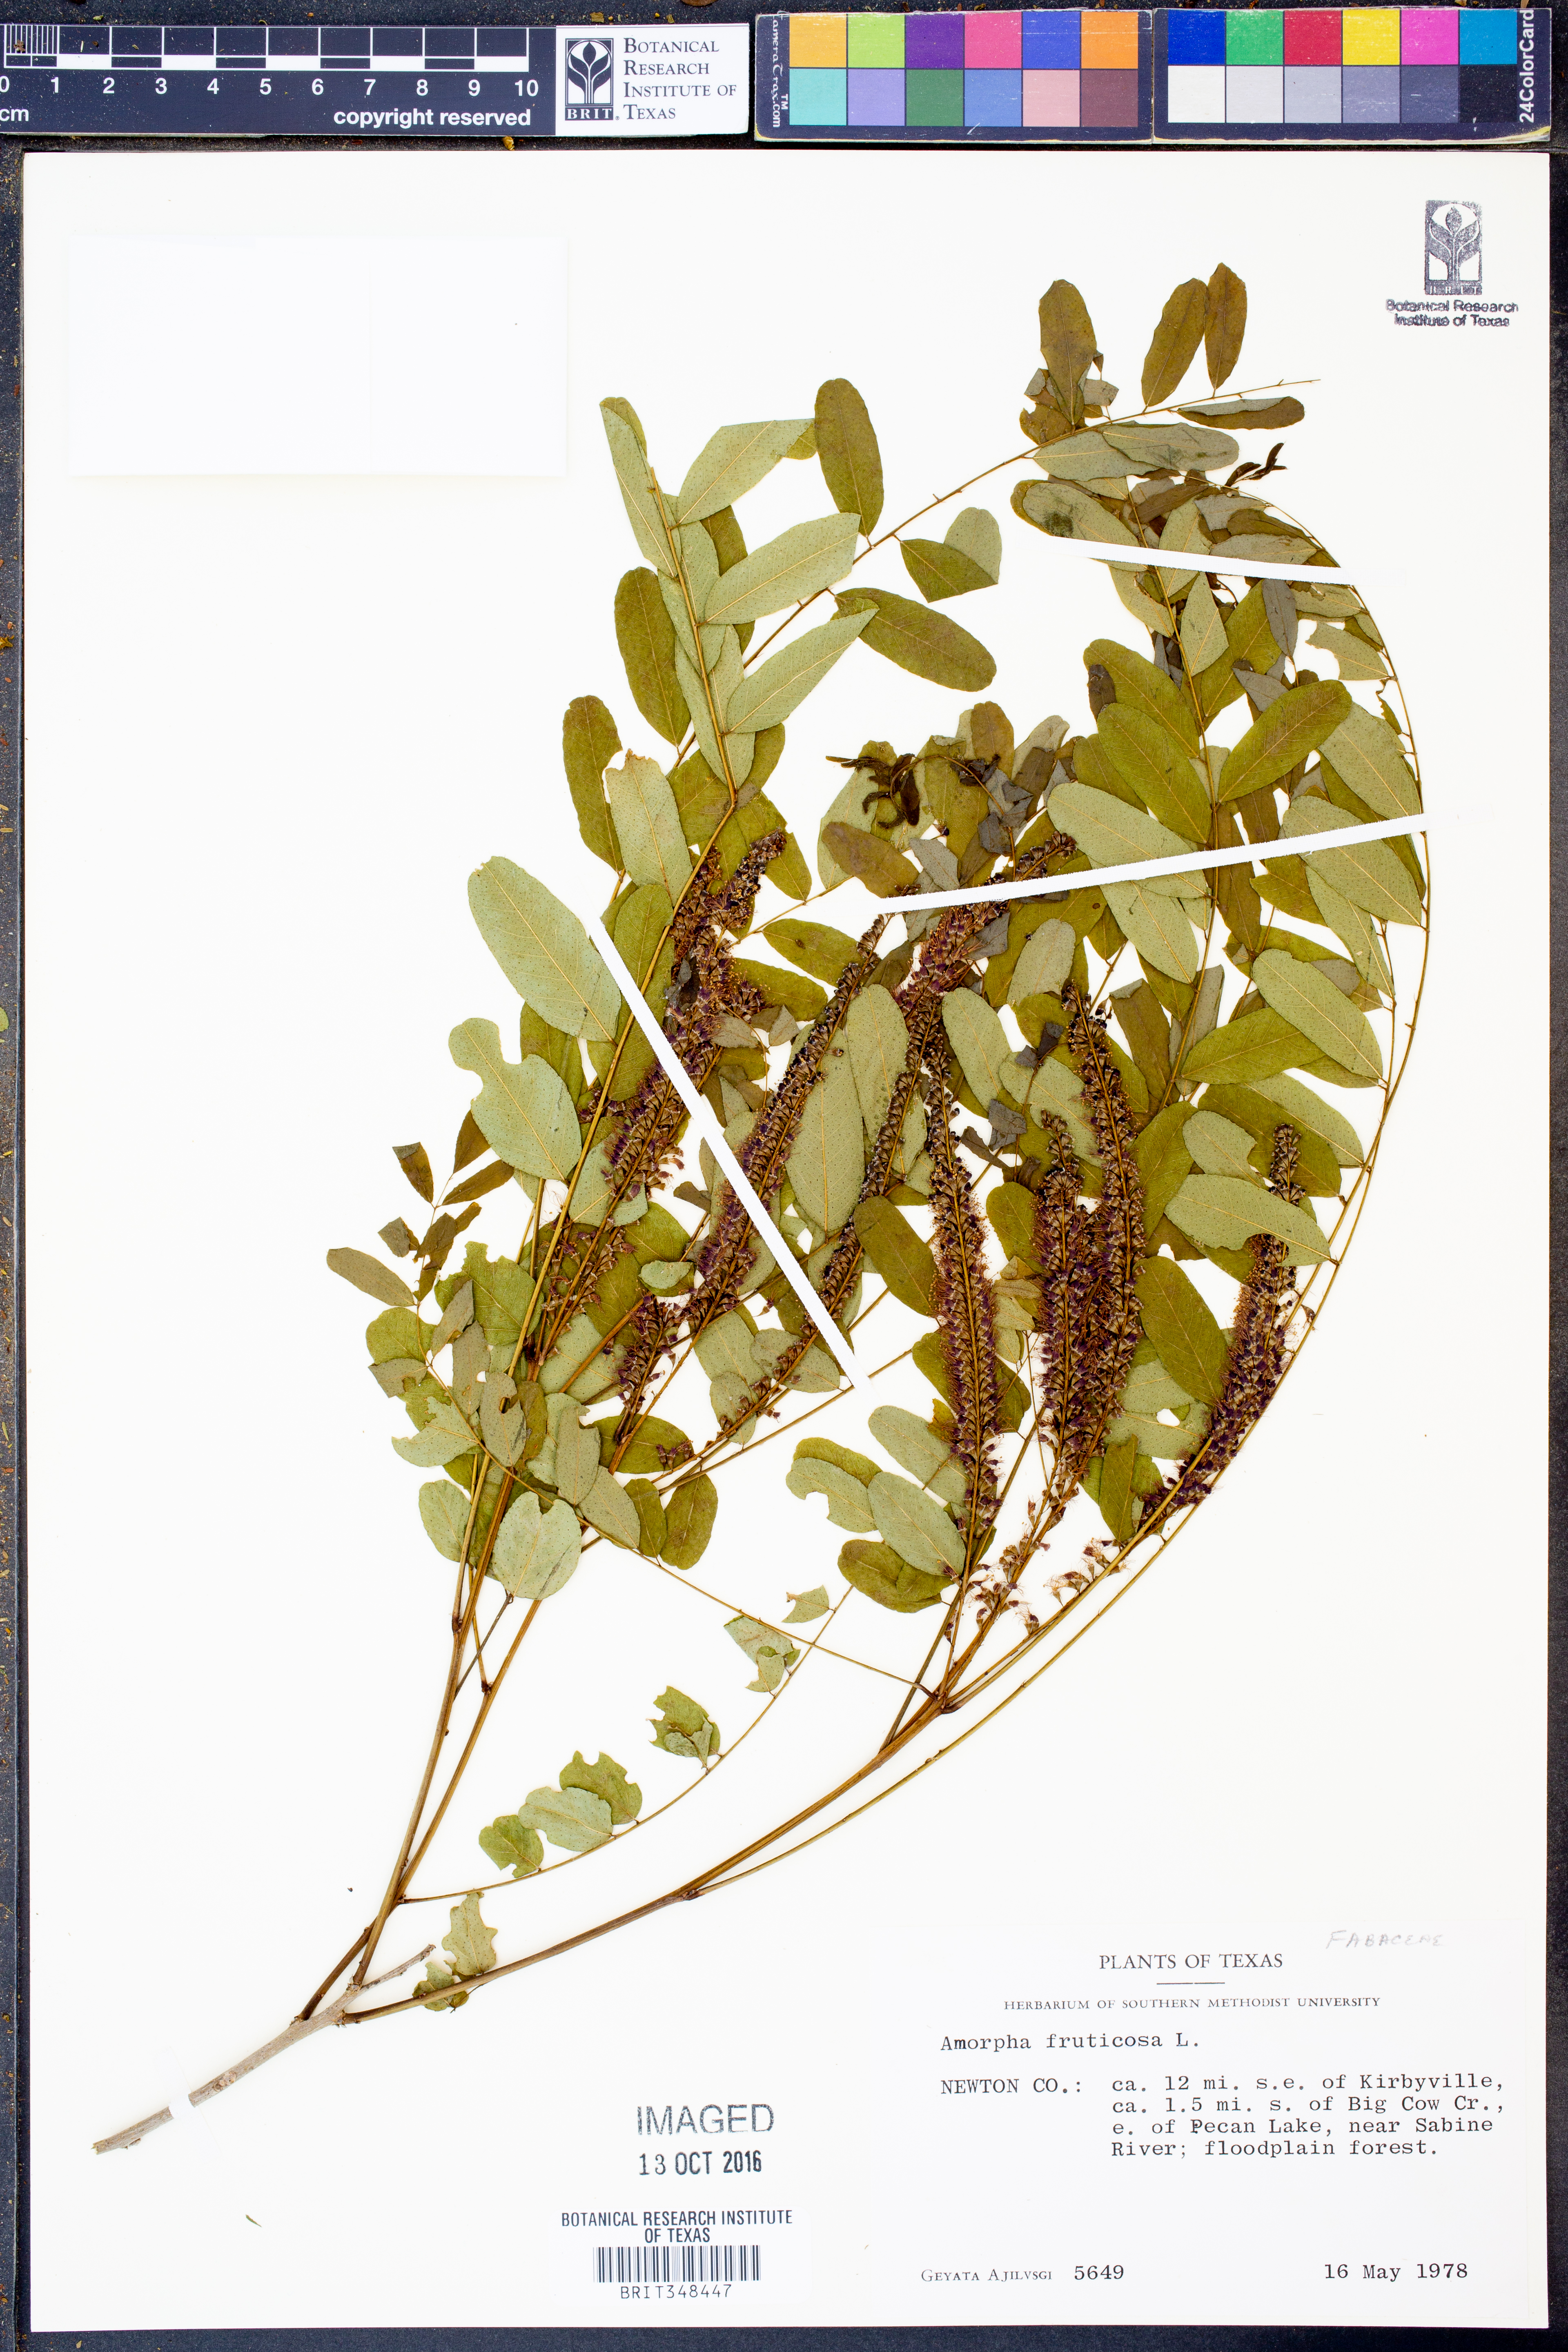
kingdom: Plantae
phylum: Tracheophyta
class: Magnoliopsida
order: Fabales
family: Fabaceae
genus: Amorpha
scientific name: Amorpha fruticosa
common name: False indigo
